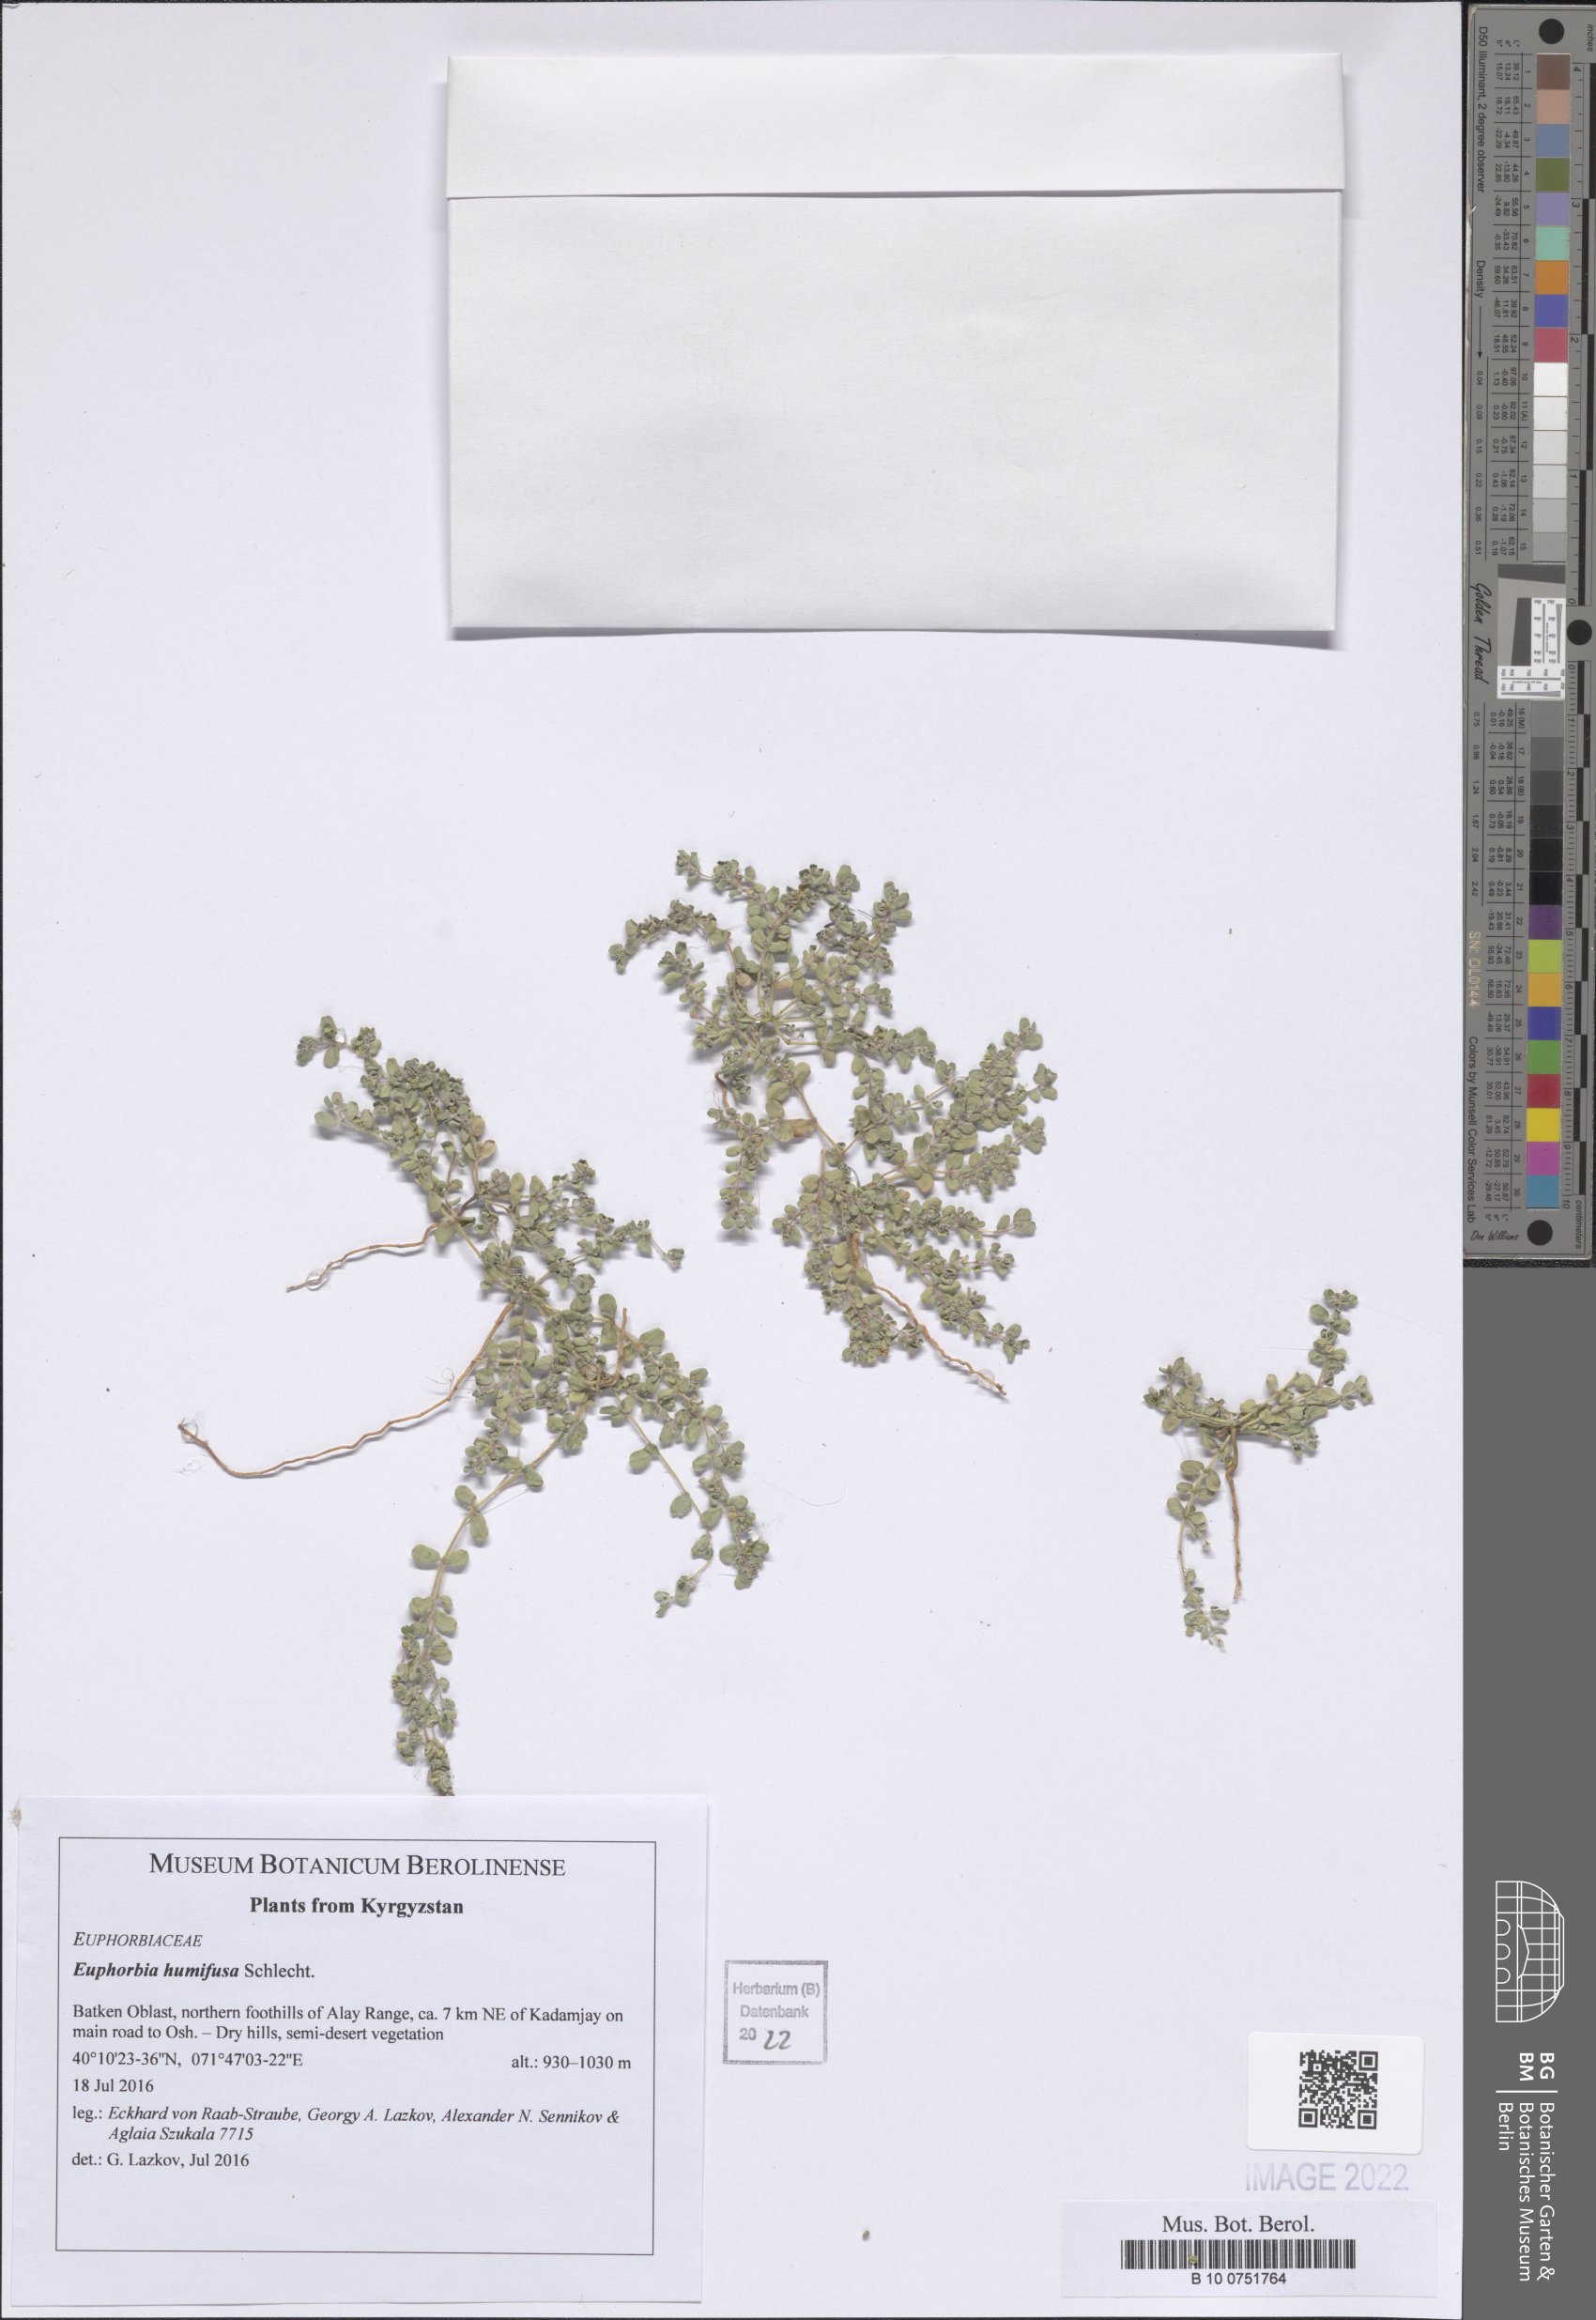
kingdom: Plantae
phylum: Tracheophyta
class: Magnoliopsida
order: Malpighiales
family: Euphorbiaceae
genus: Euphorbia
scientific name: Euphorbia humifusa
